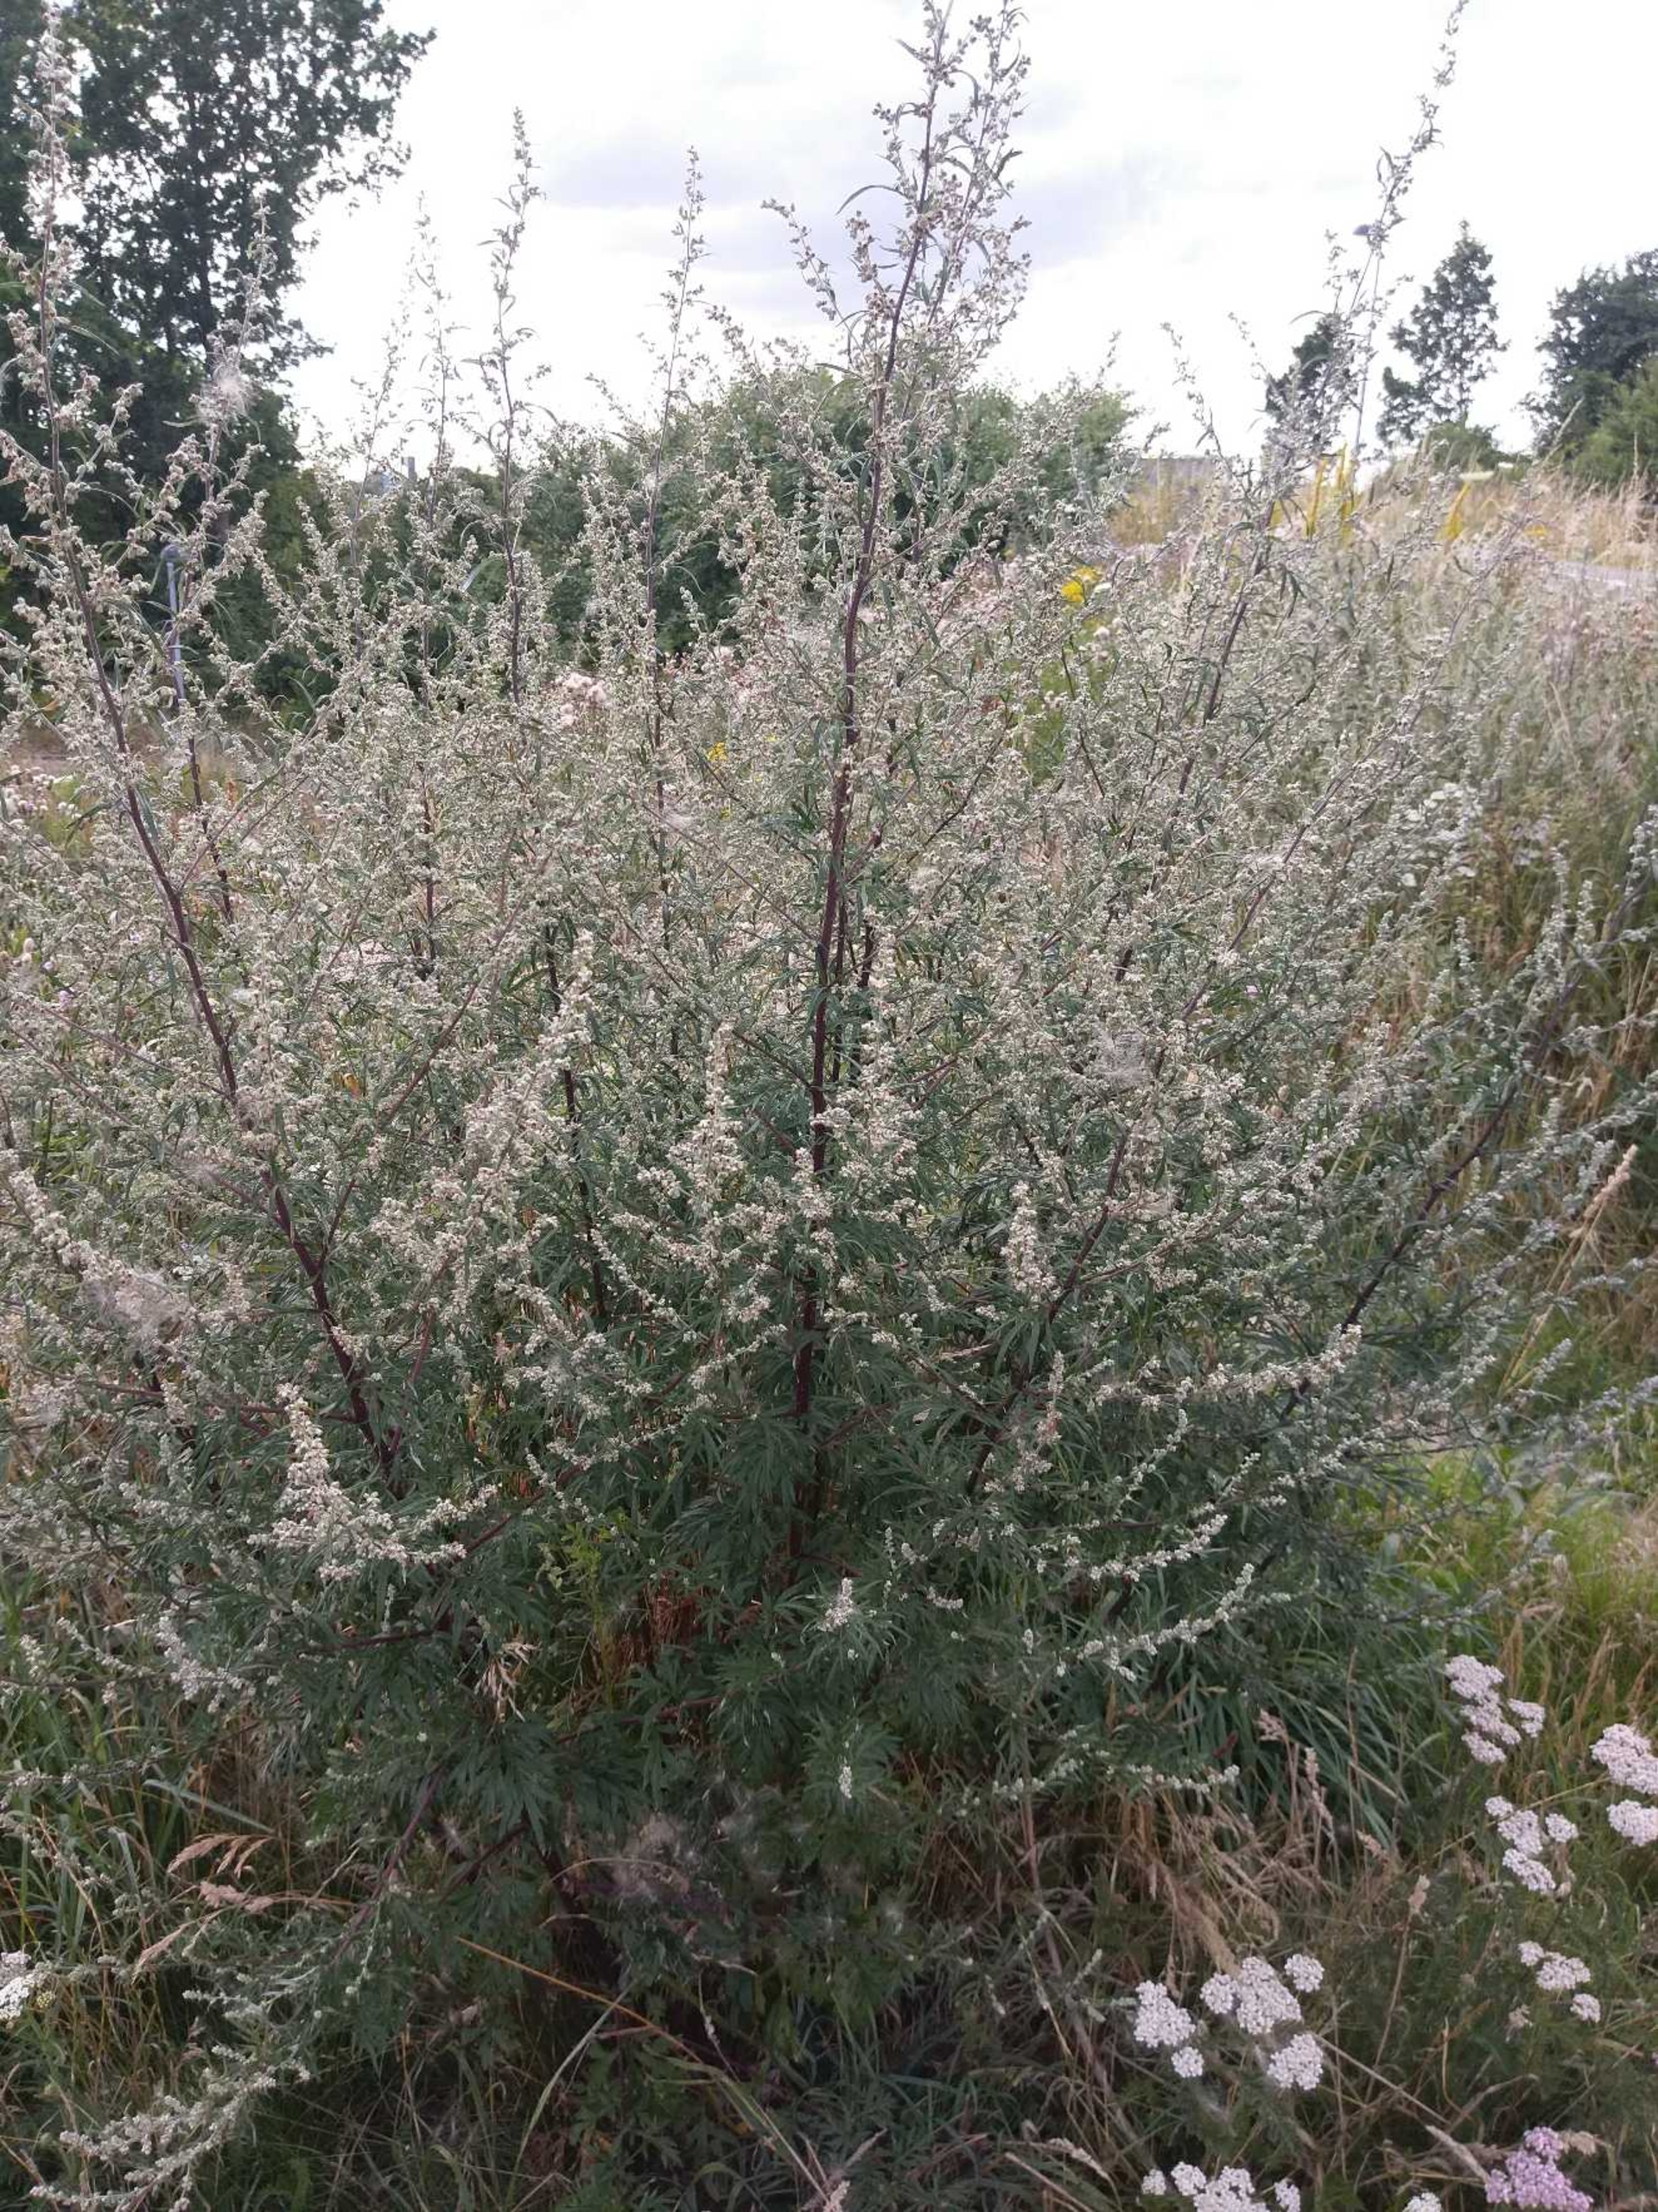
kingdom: Plantae
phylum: Tracheophyta
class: Magnoliopsida
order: Asterales
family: Asteraceae
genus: Artemisia
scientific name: Artemisia vulgaris
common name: Grå-bynke
